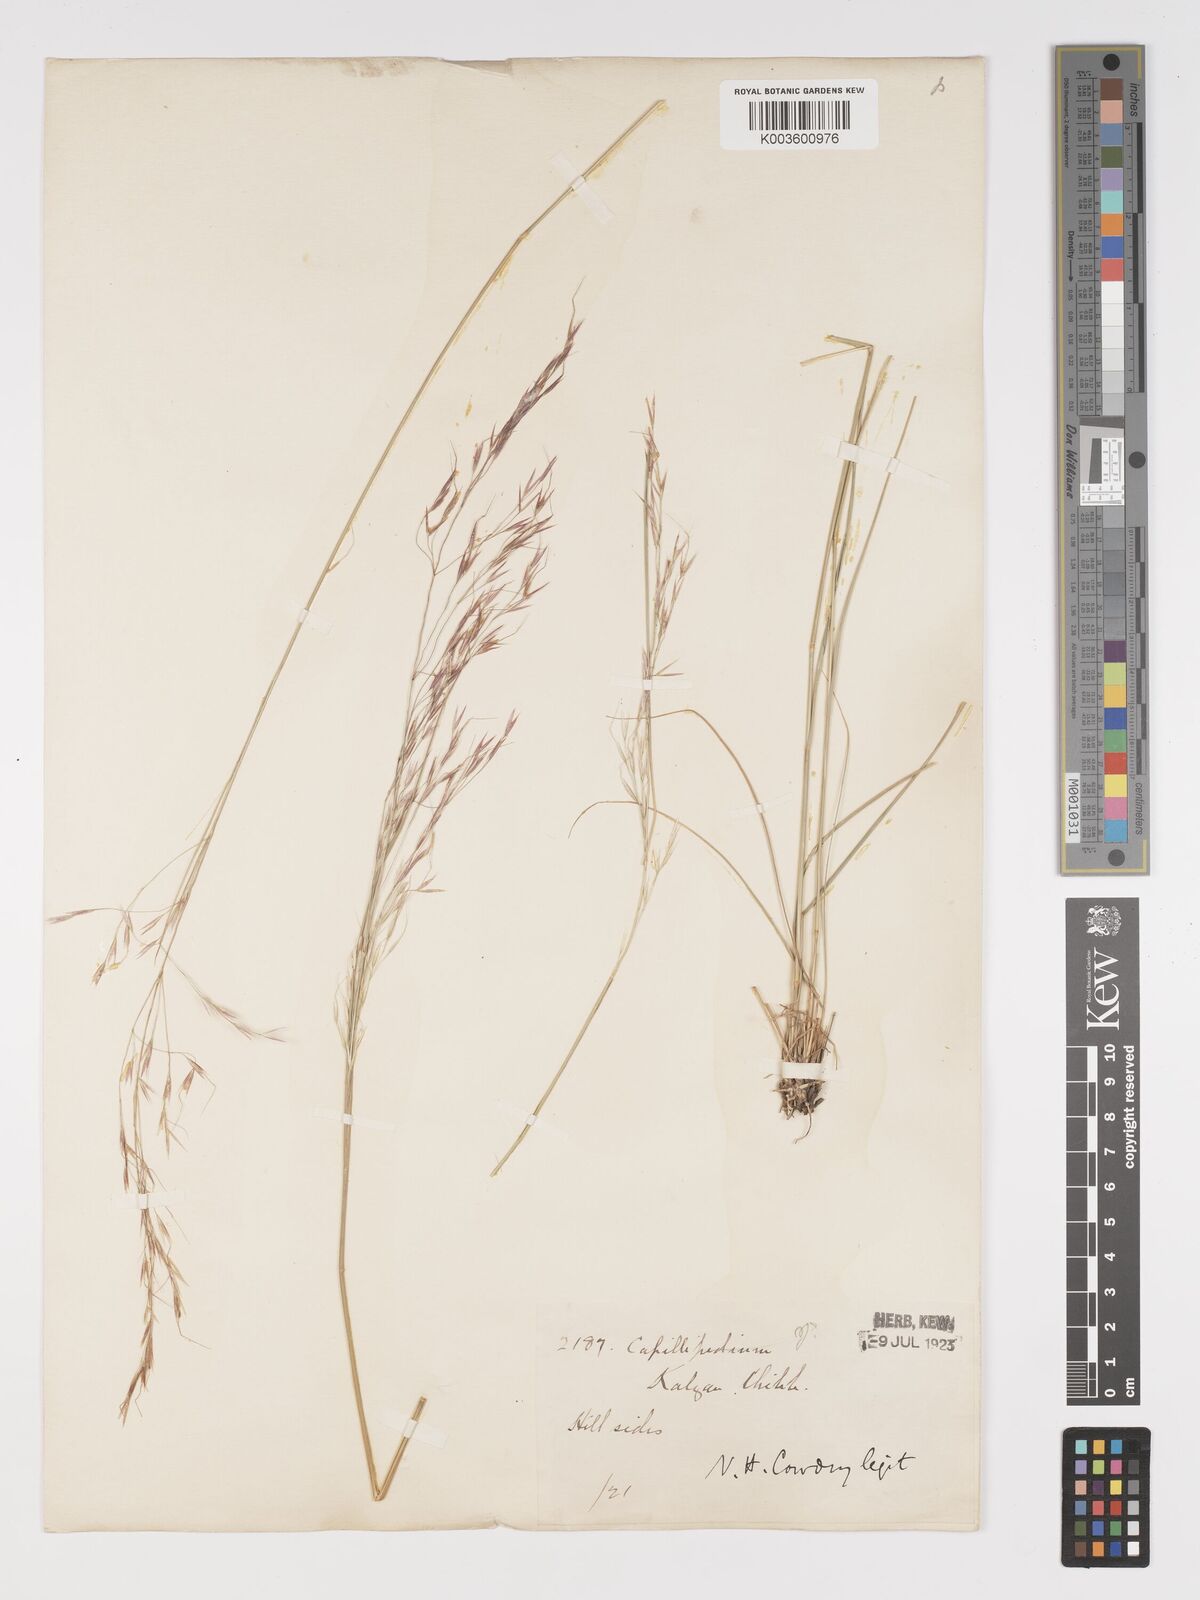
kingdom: Plantae
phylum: Tracheophyta
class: Liliopsida
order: Poales
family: Poaceae
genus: Achnatherum
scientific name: Achnatherum sibiricum
